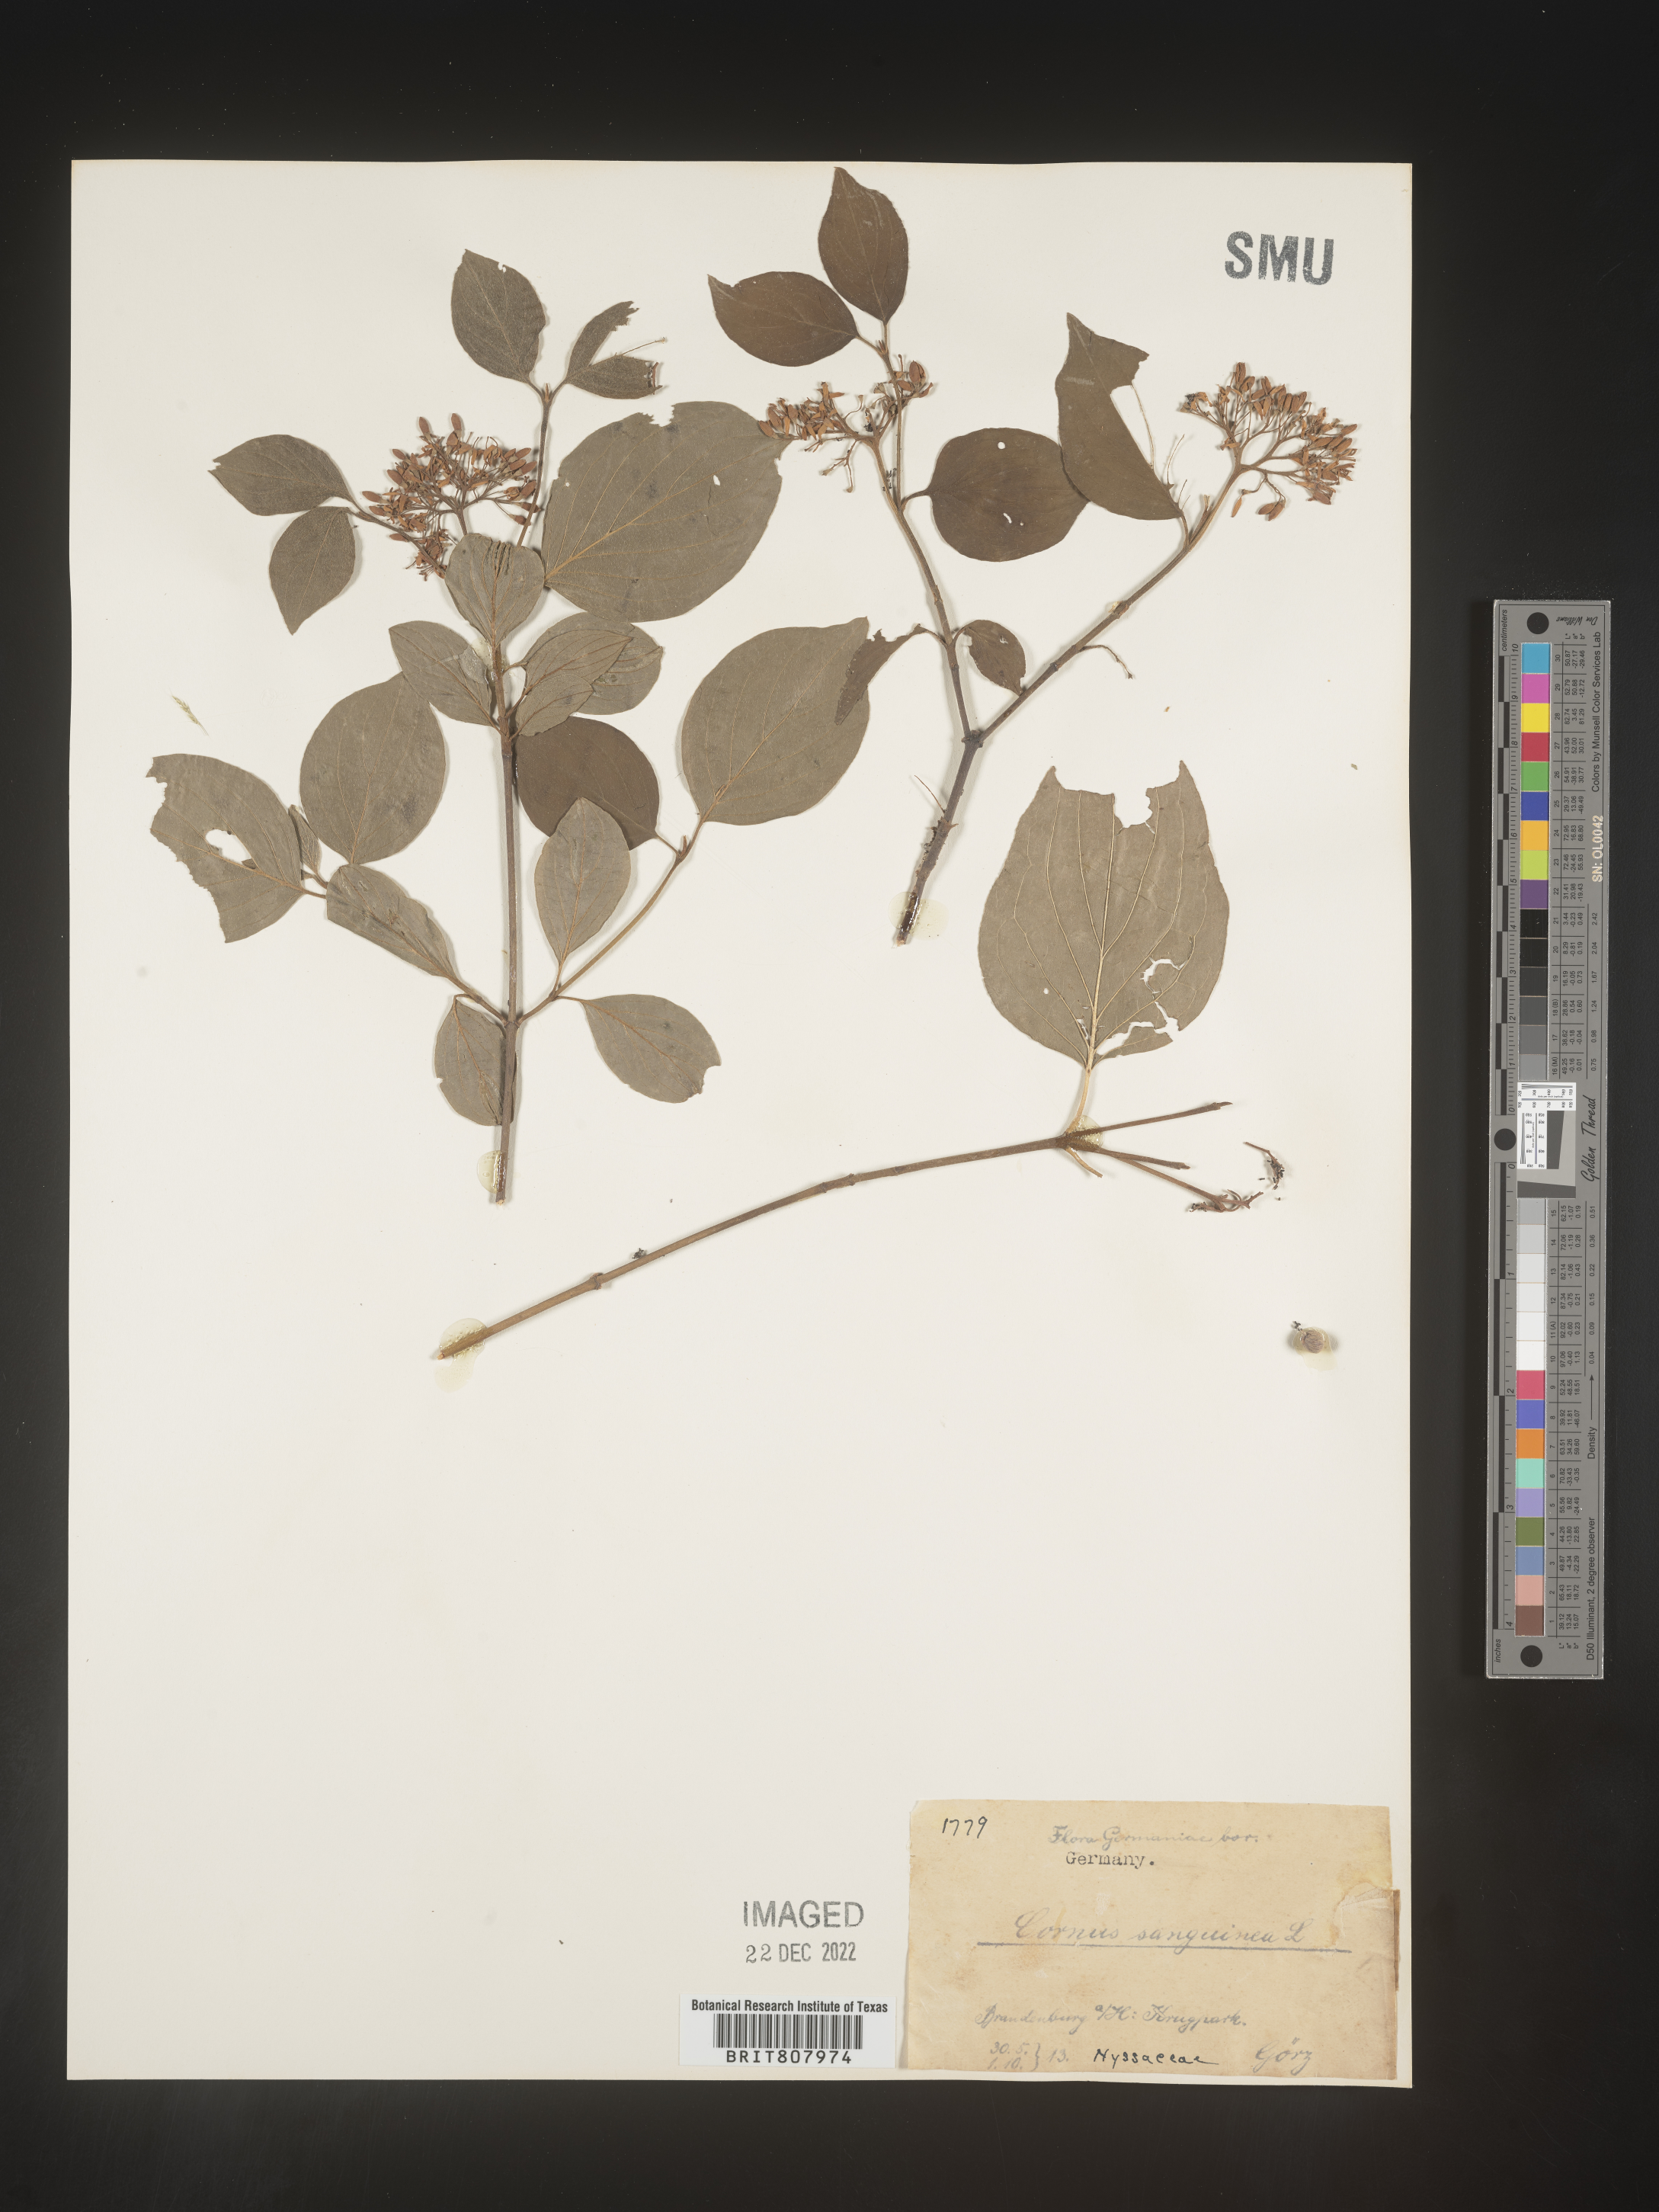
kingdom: Plantae
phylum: Tracheophyta
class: Magnoliopsida
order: Cornales
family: Cornaceae
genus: Cornus
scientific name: Cornus
